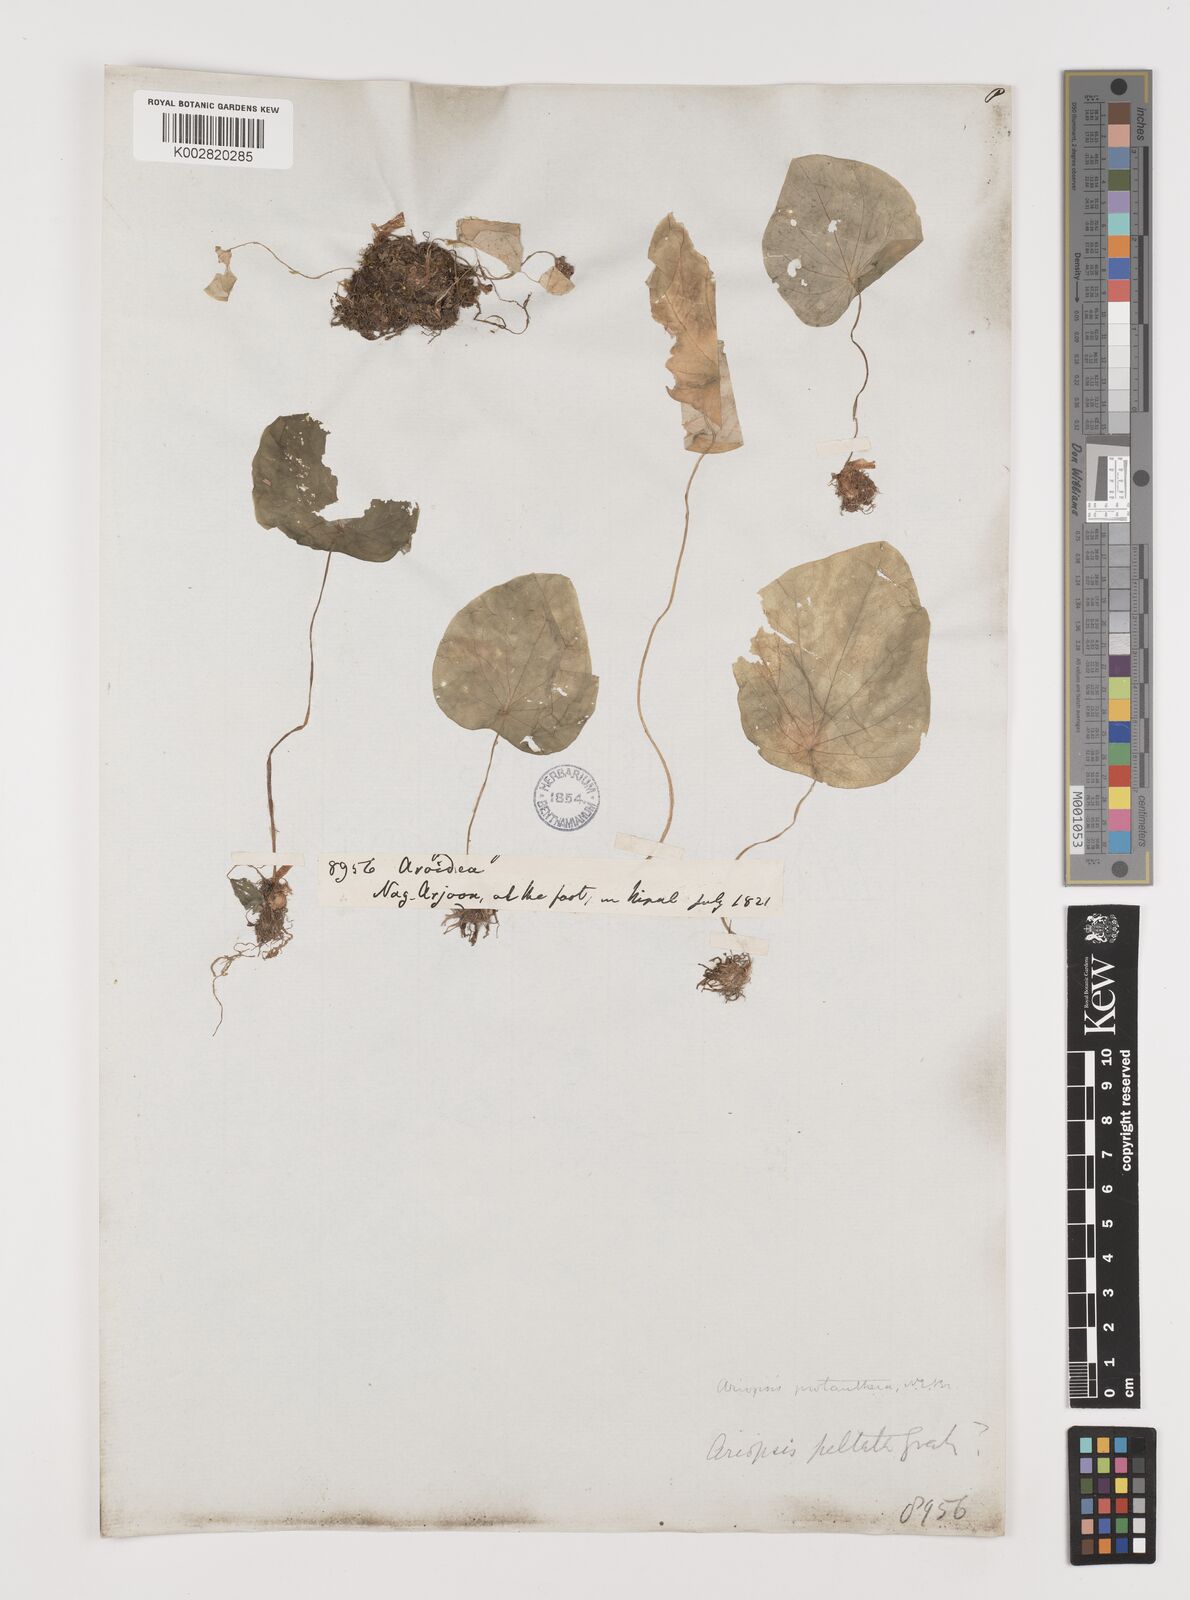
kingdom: Plantae
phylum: Tracheophyta
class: Liliopsida
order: Alismatales
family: Araceae
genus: Ariopsis
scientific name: Ariopsis peltata
